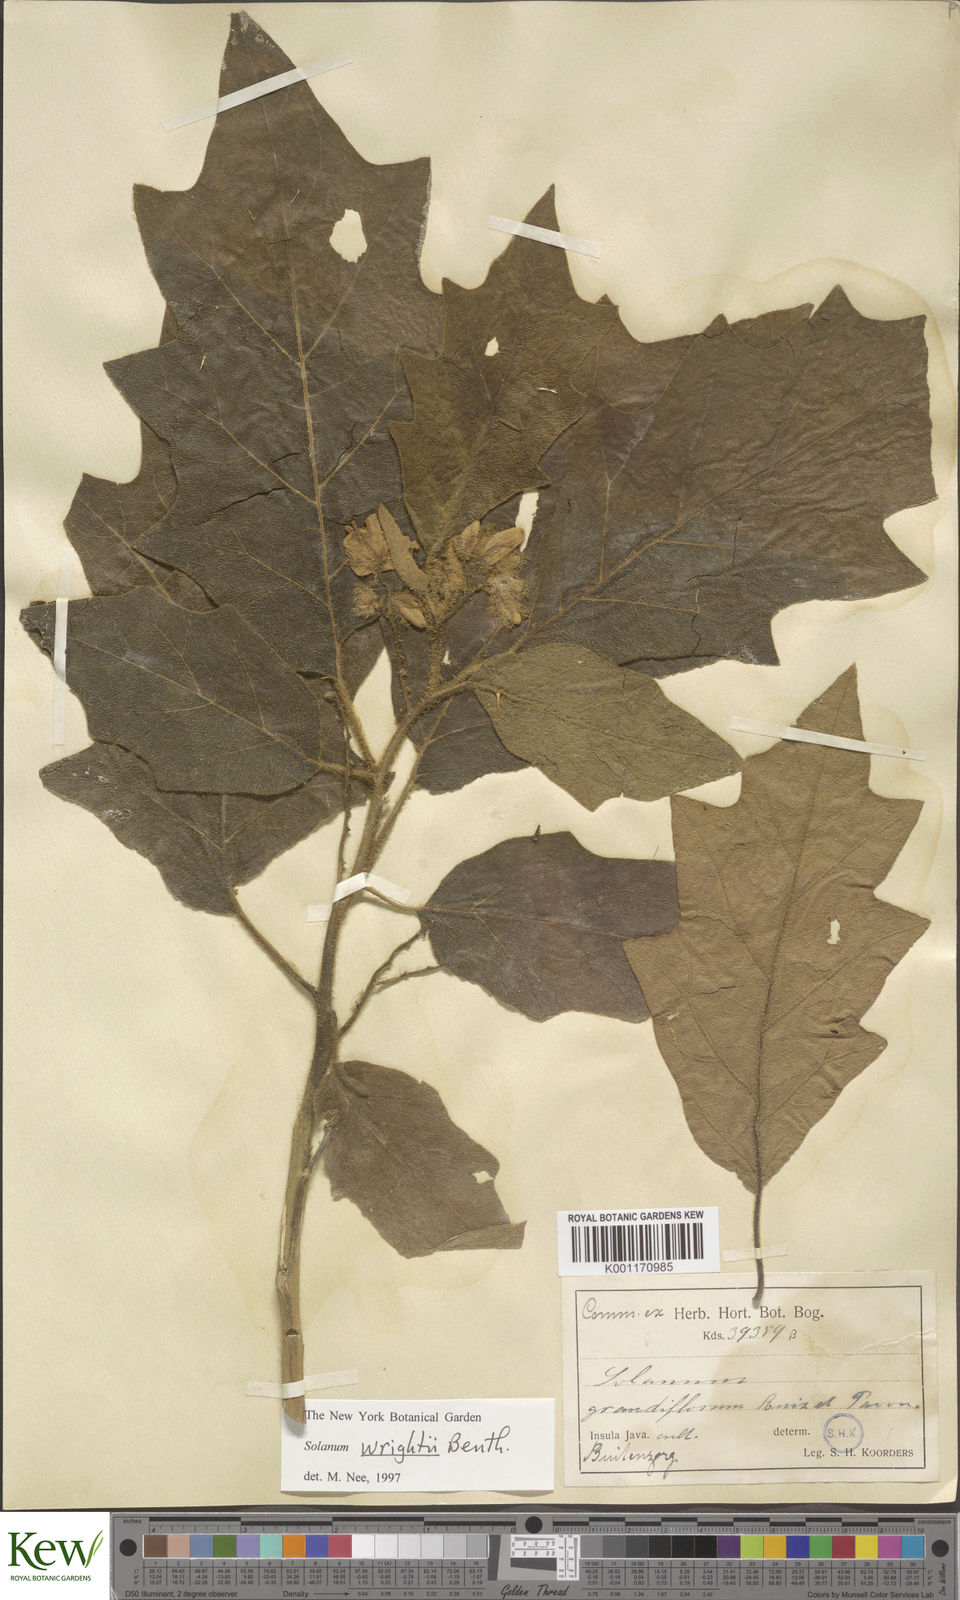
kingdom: Plantae
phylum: Tracheophyta
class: Magnoliopsida
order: Solanales
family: Solanaceae
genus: Solanum
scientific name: Solanum wrightii
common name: Brazilian potato-tree
